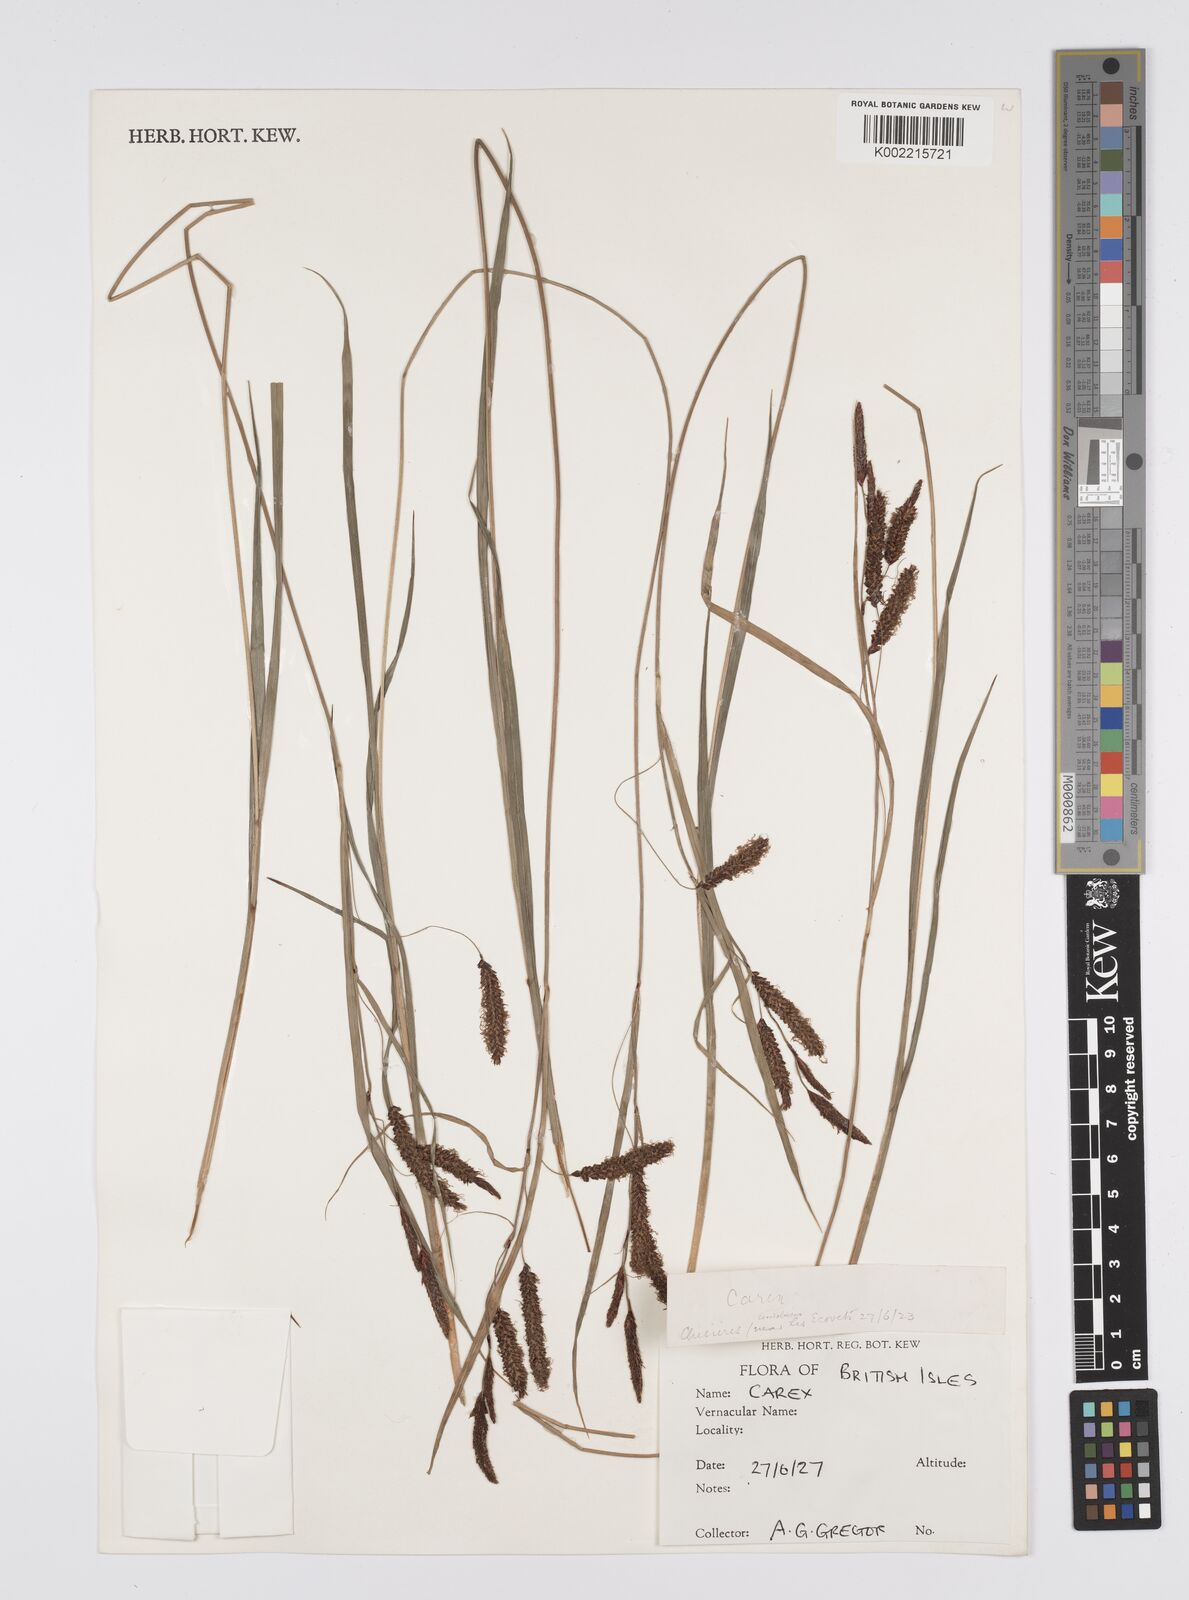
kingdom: Plantae
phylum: Tracheophyta
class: Liliopsida
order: Poales
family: Cyperaceae
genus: Carex
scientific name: Carex
